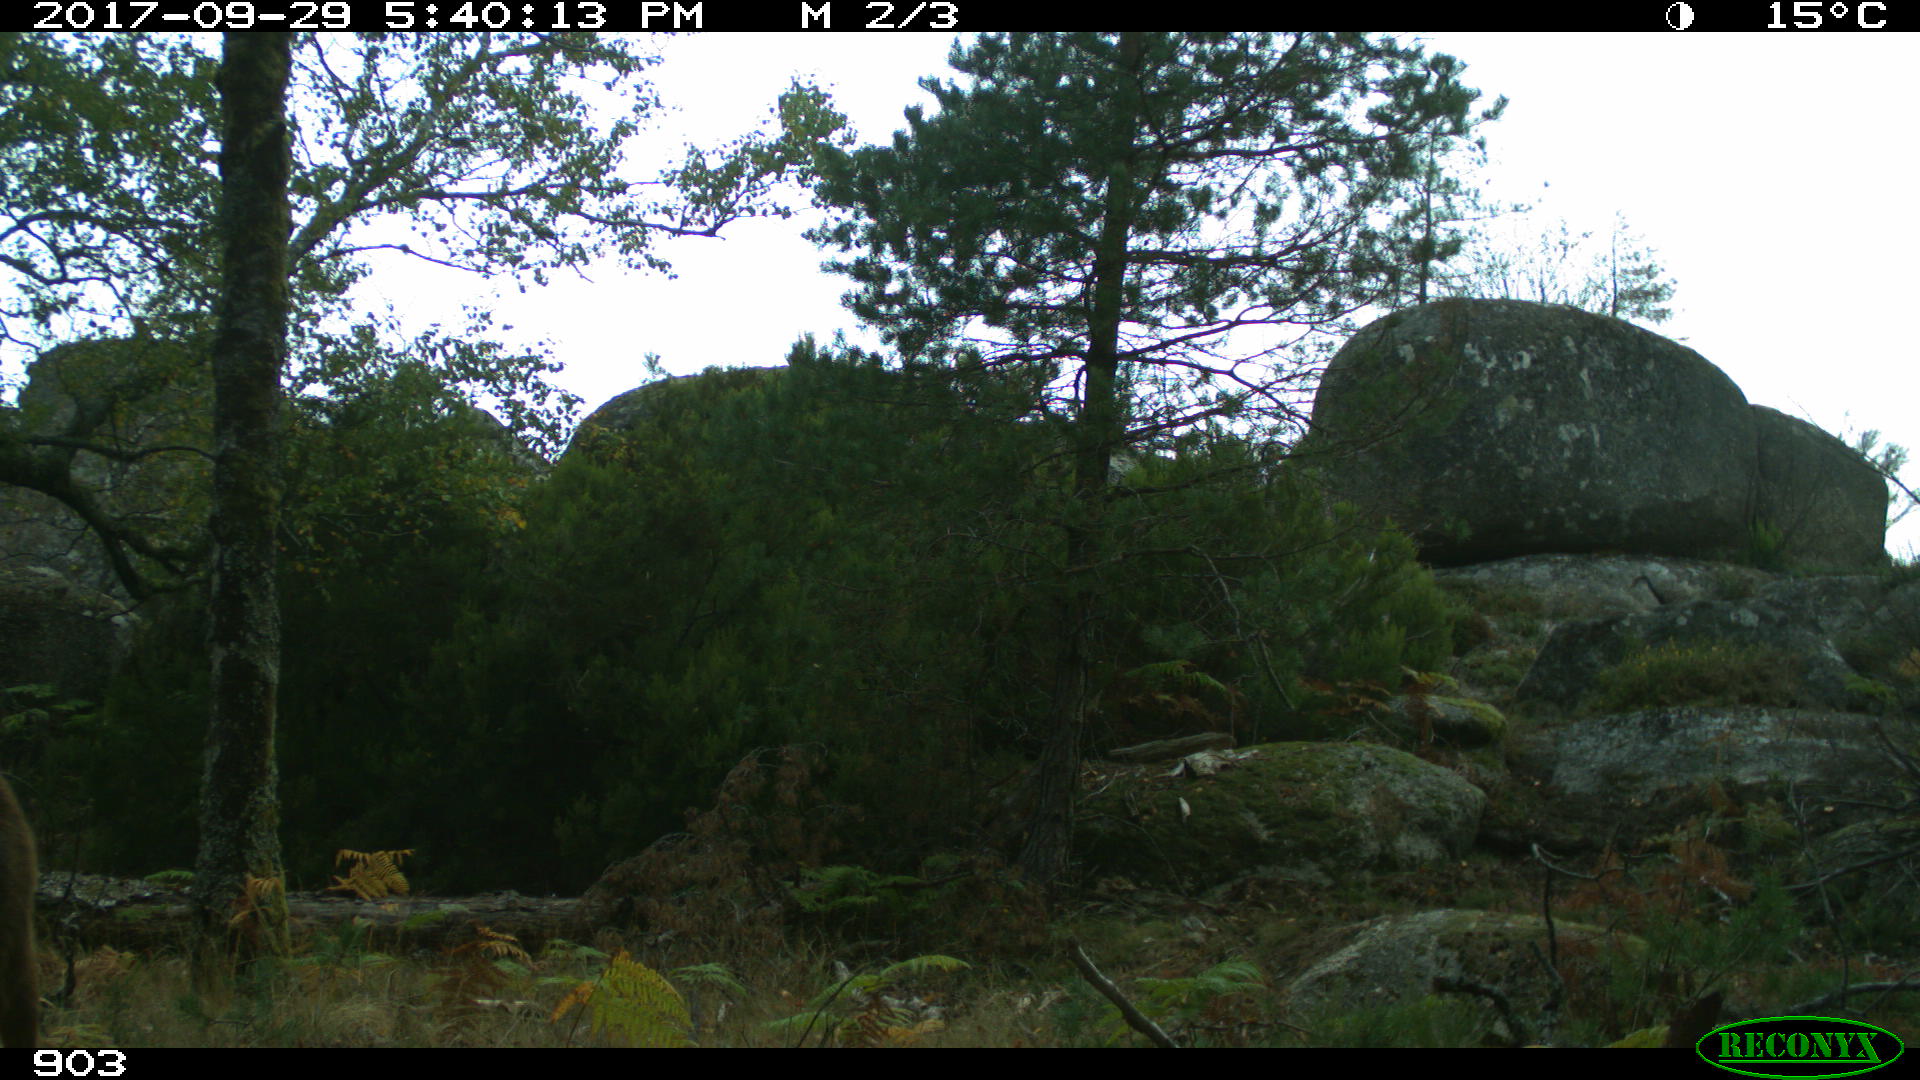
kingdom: Animalia
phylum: Chordata
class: Mammalia
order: Artiodactyla
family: Cervidae
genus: Capreolus
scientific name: Capreolus capreolus
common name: Western roe deer
